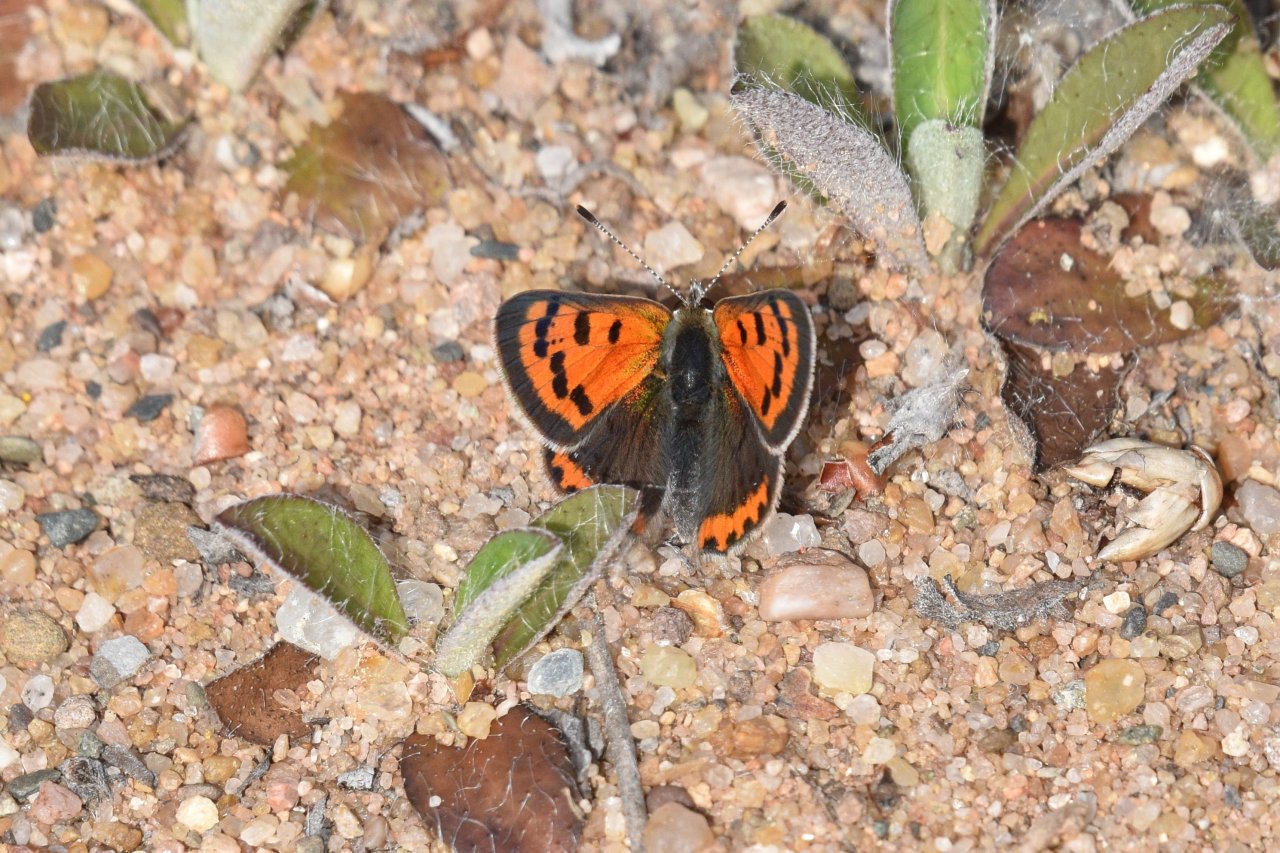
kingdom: Animalia
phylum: Arthropoda
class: Insecta
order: Lepidoptera
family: Lycaenidae
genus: Lycaena
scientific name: Lycaena phlaeas
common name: American Copper
